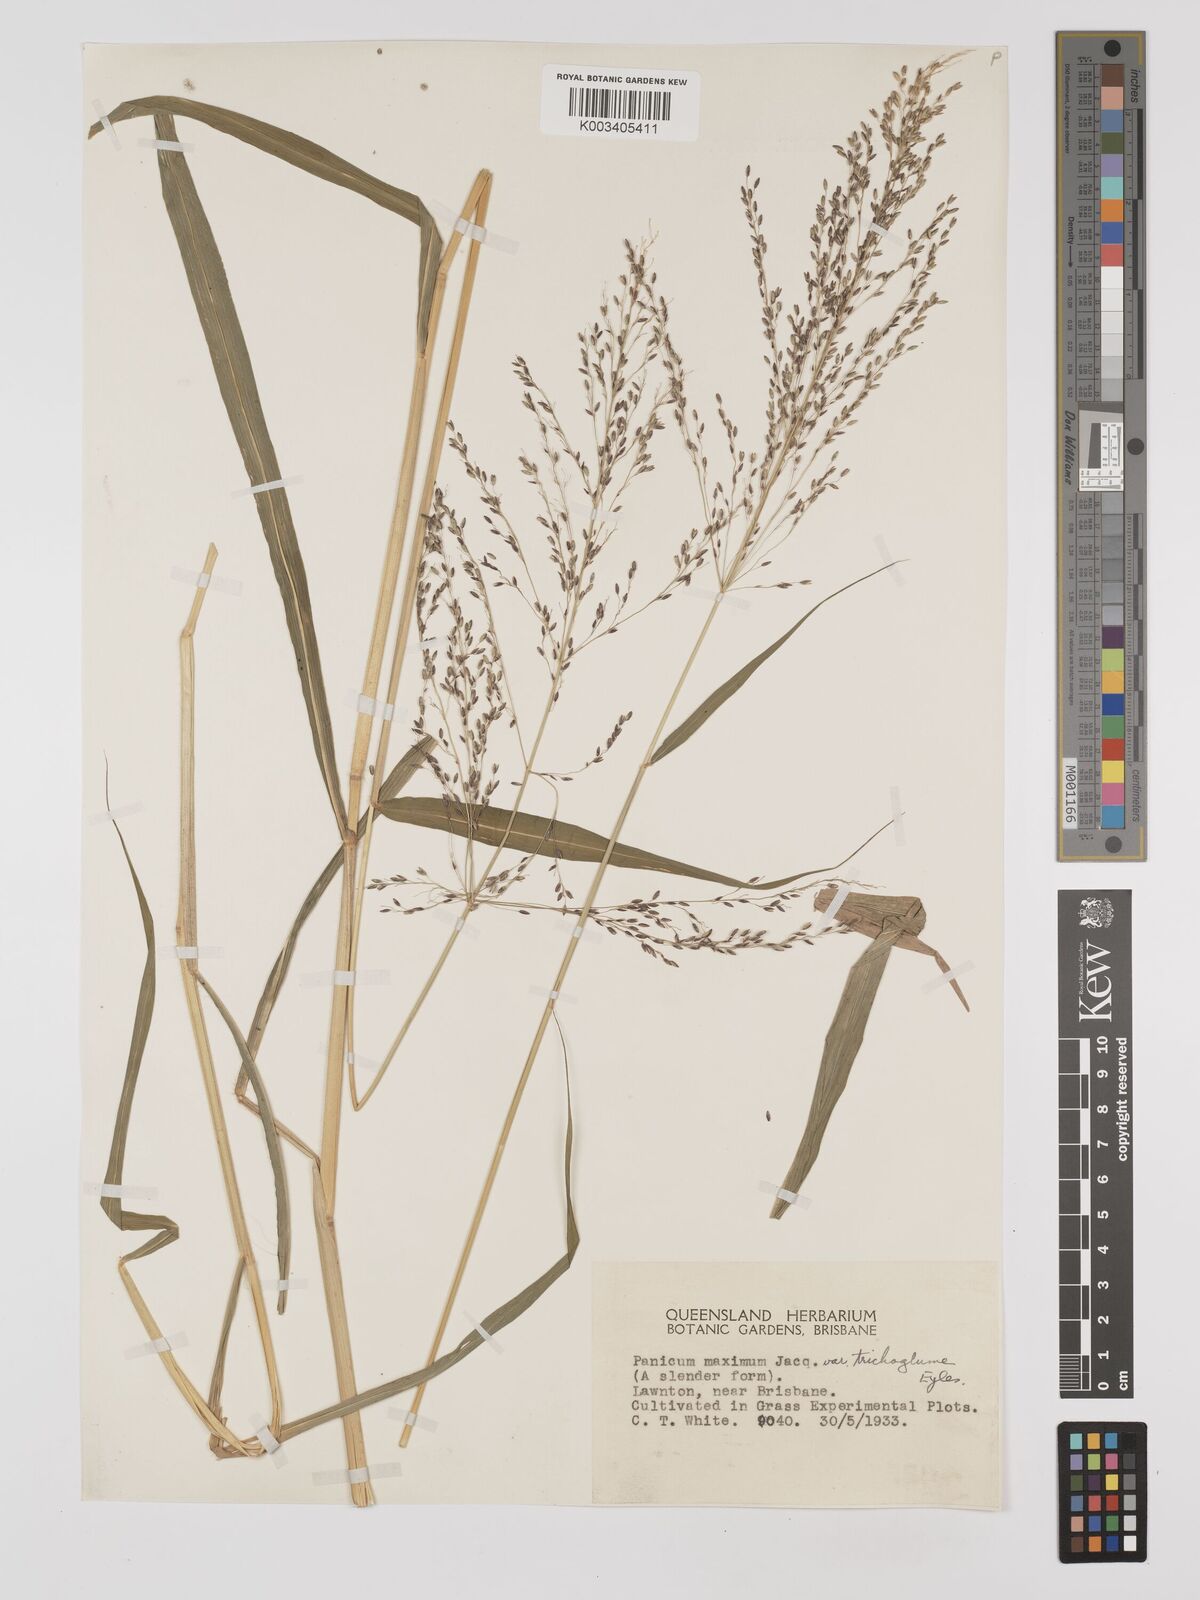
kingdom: Plantae
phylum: Tracheophyta
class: Liliopsida
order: Poales
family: Poaceae
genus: Megathyrsus
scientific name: Megathyrsus maximus
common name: Guineagrass
